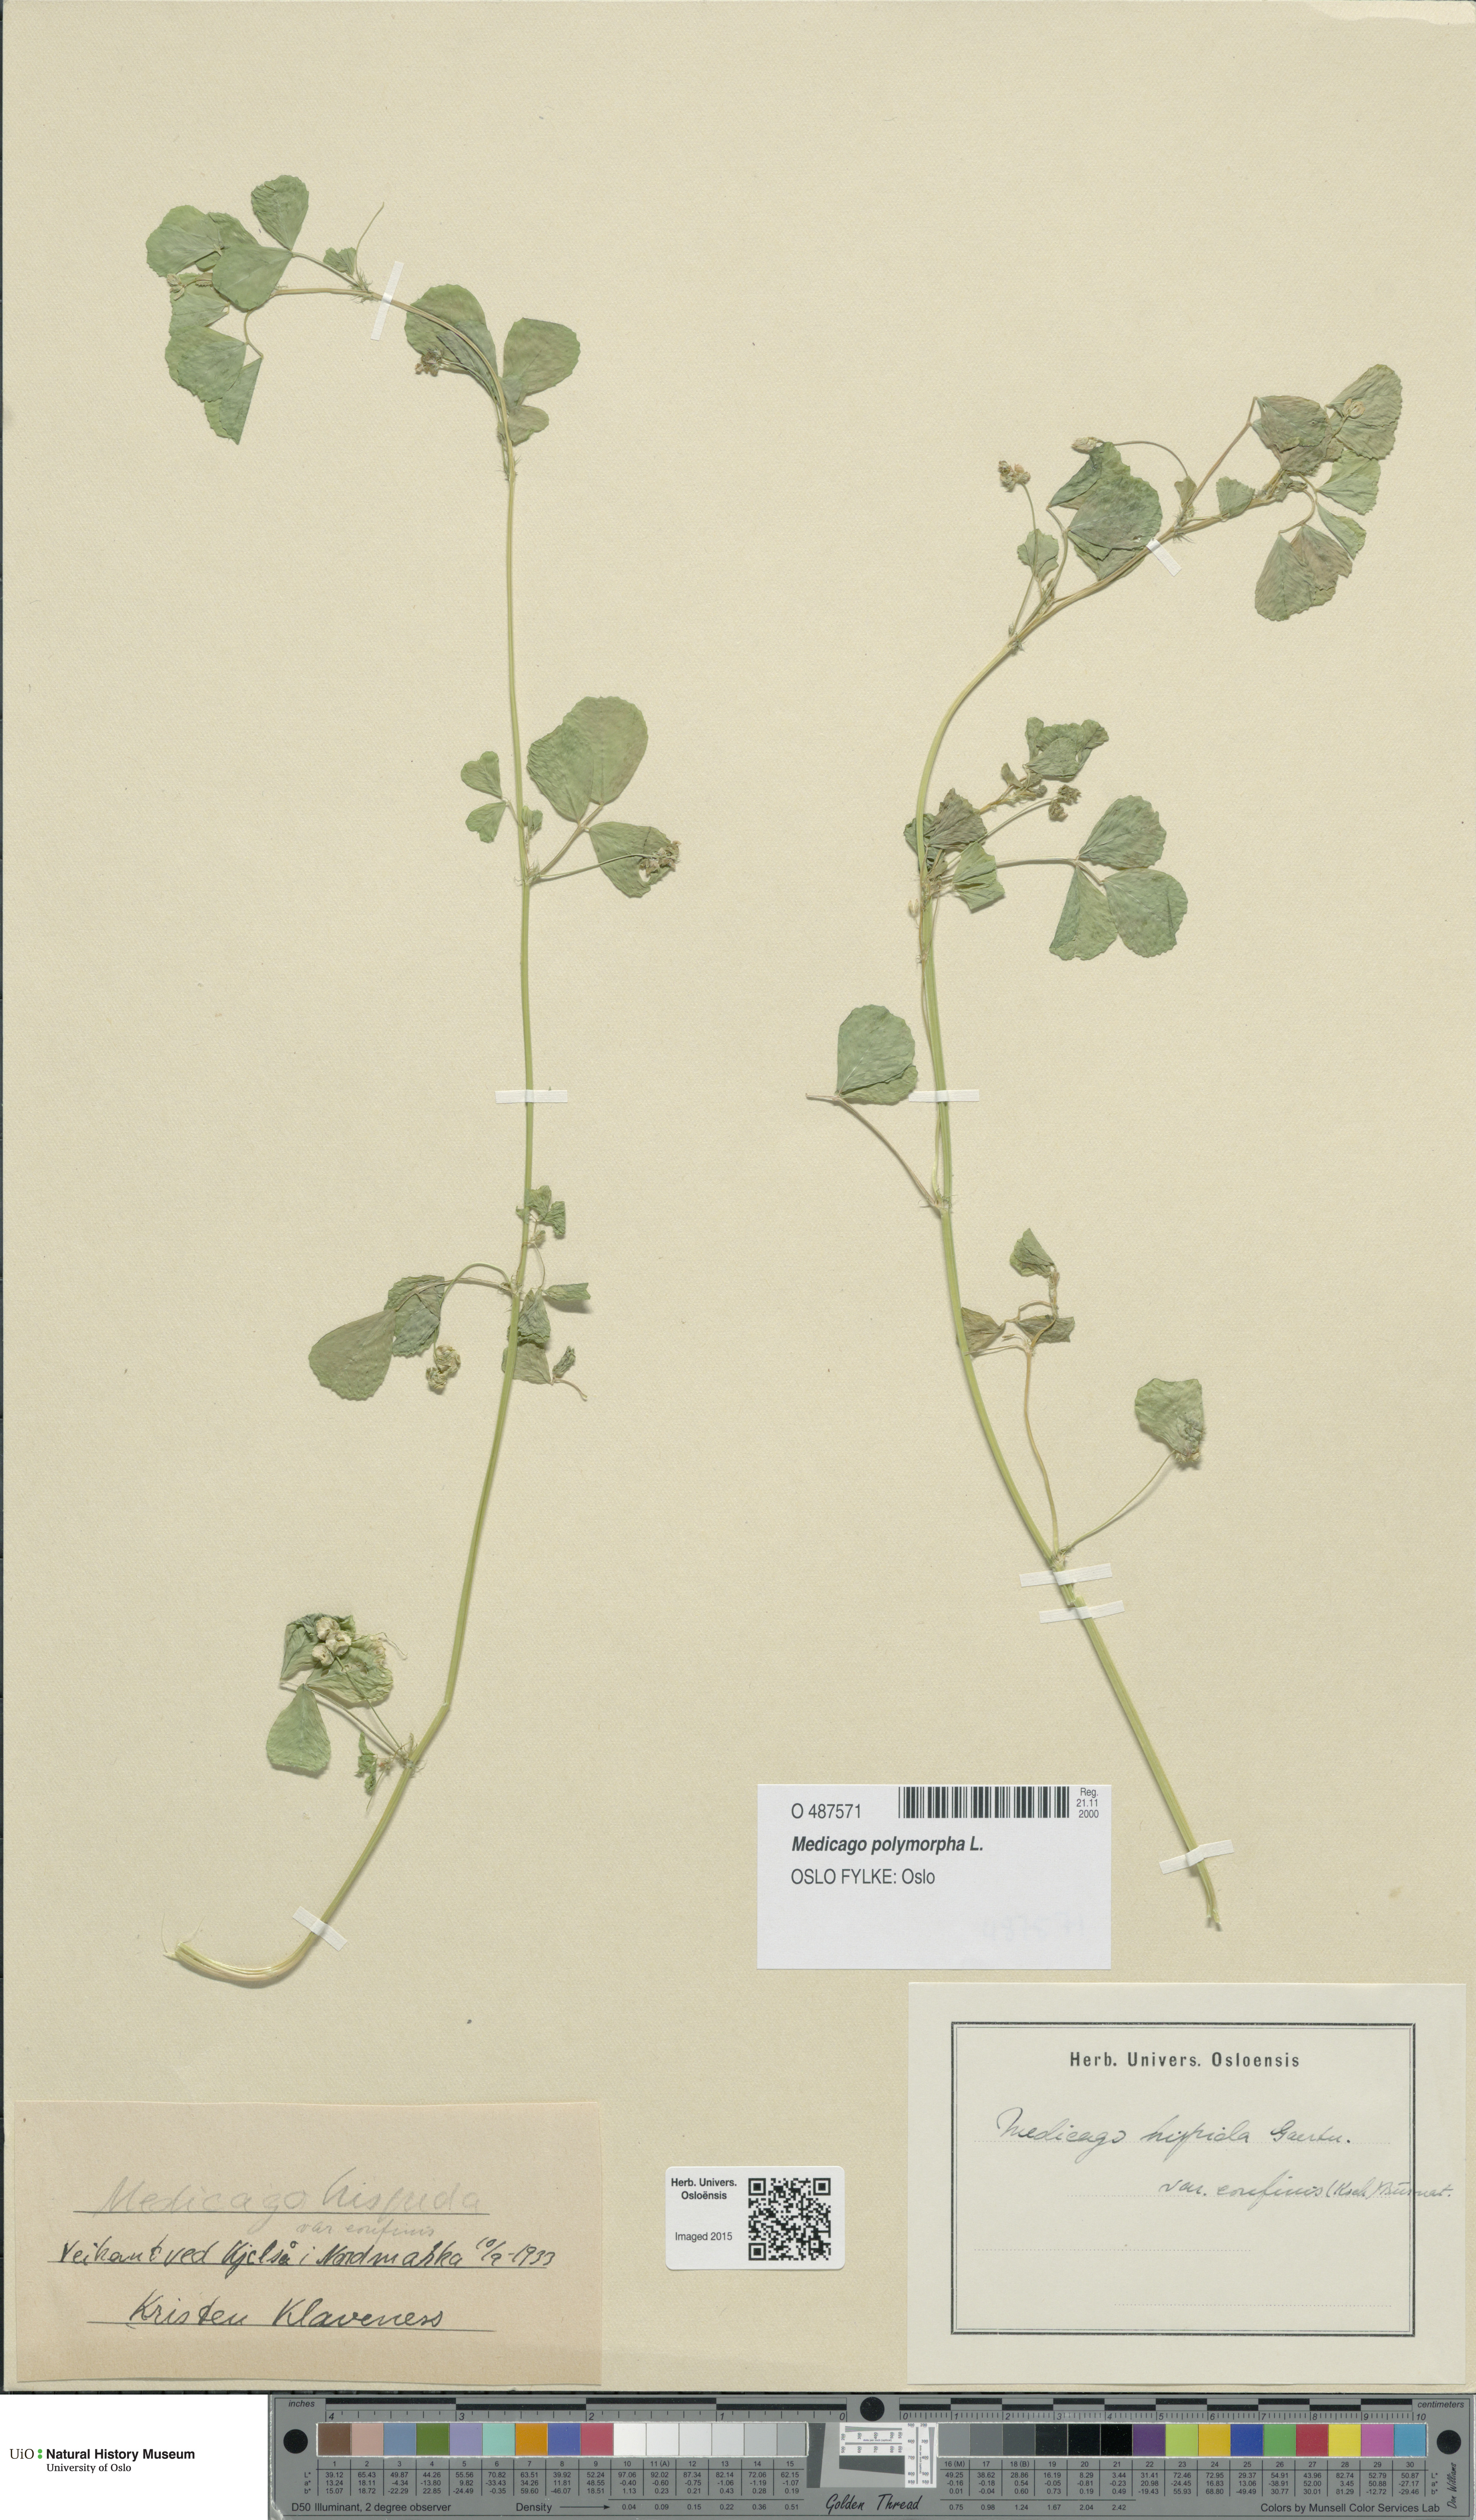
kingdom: Plantae
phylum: Tracheophyta
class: Magnoliopsida
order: Fabales
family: Fabaceae
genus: Medicago
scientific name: Medicago polymorpha
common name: Burclover
